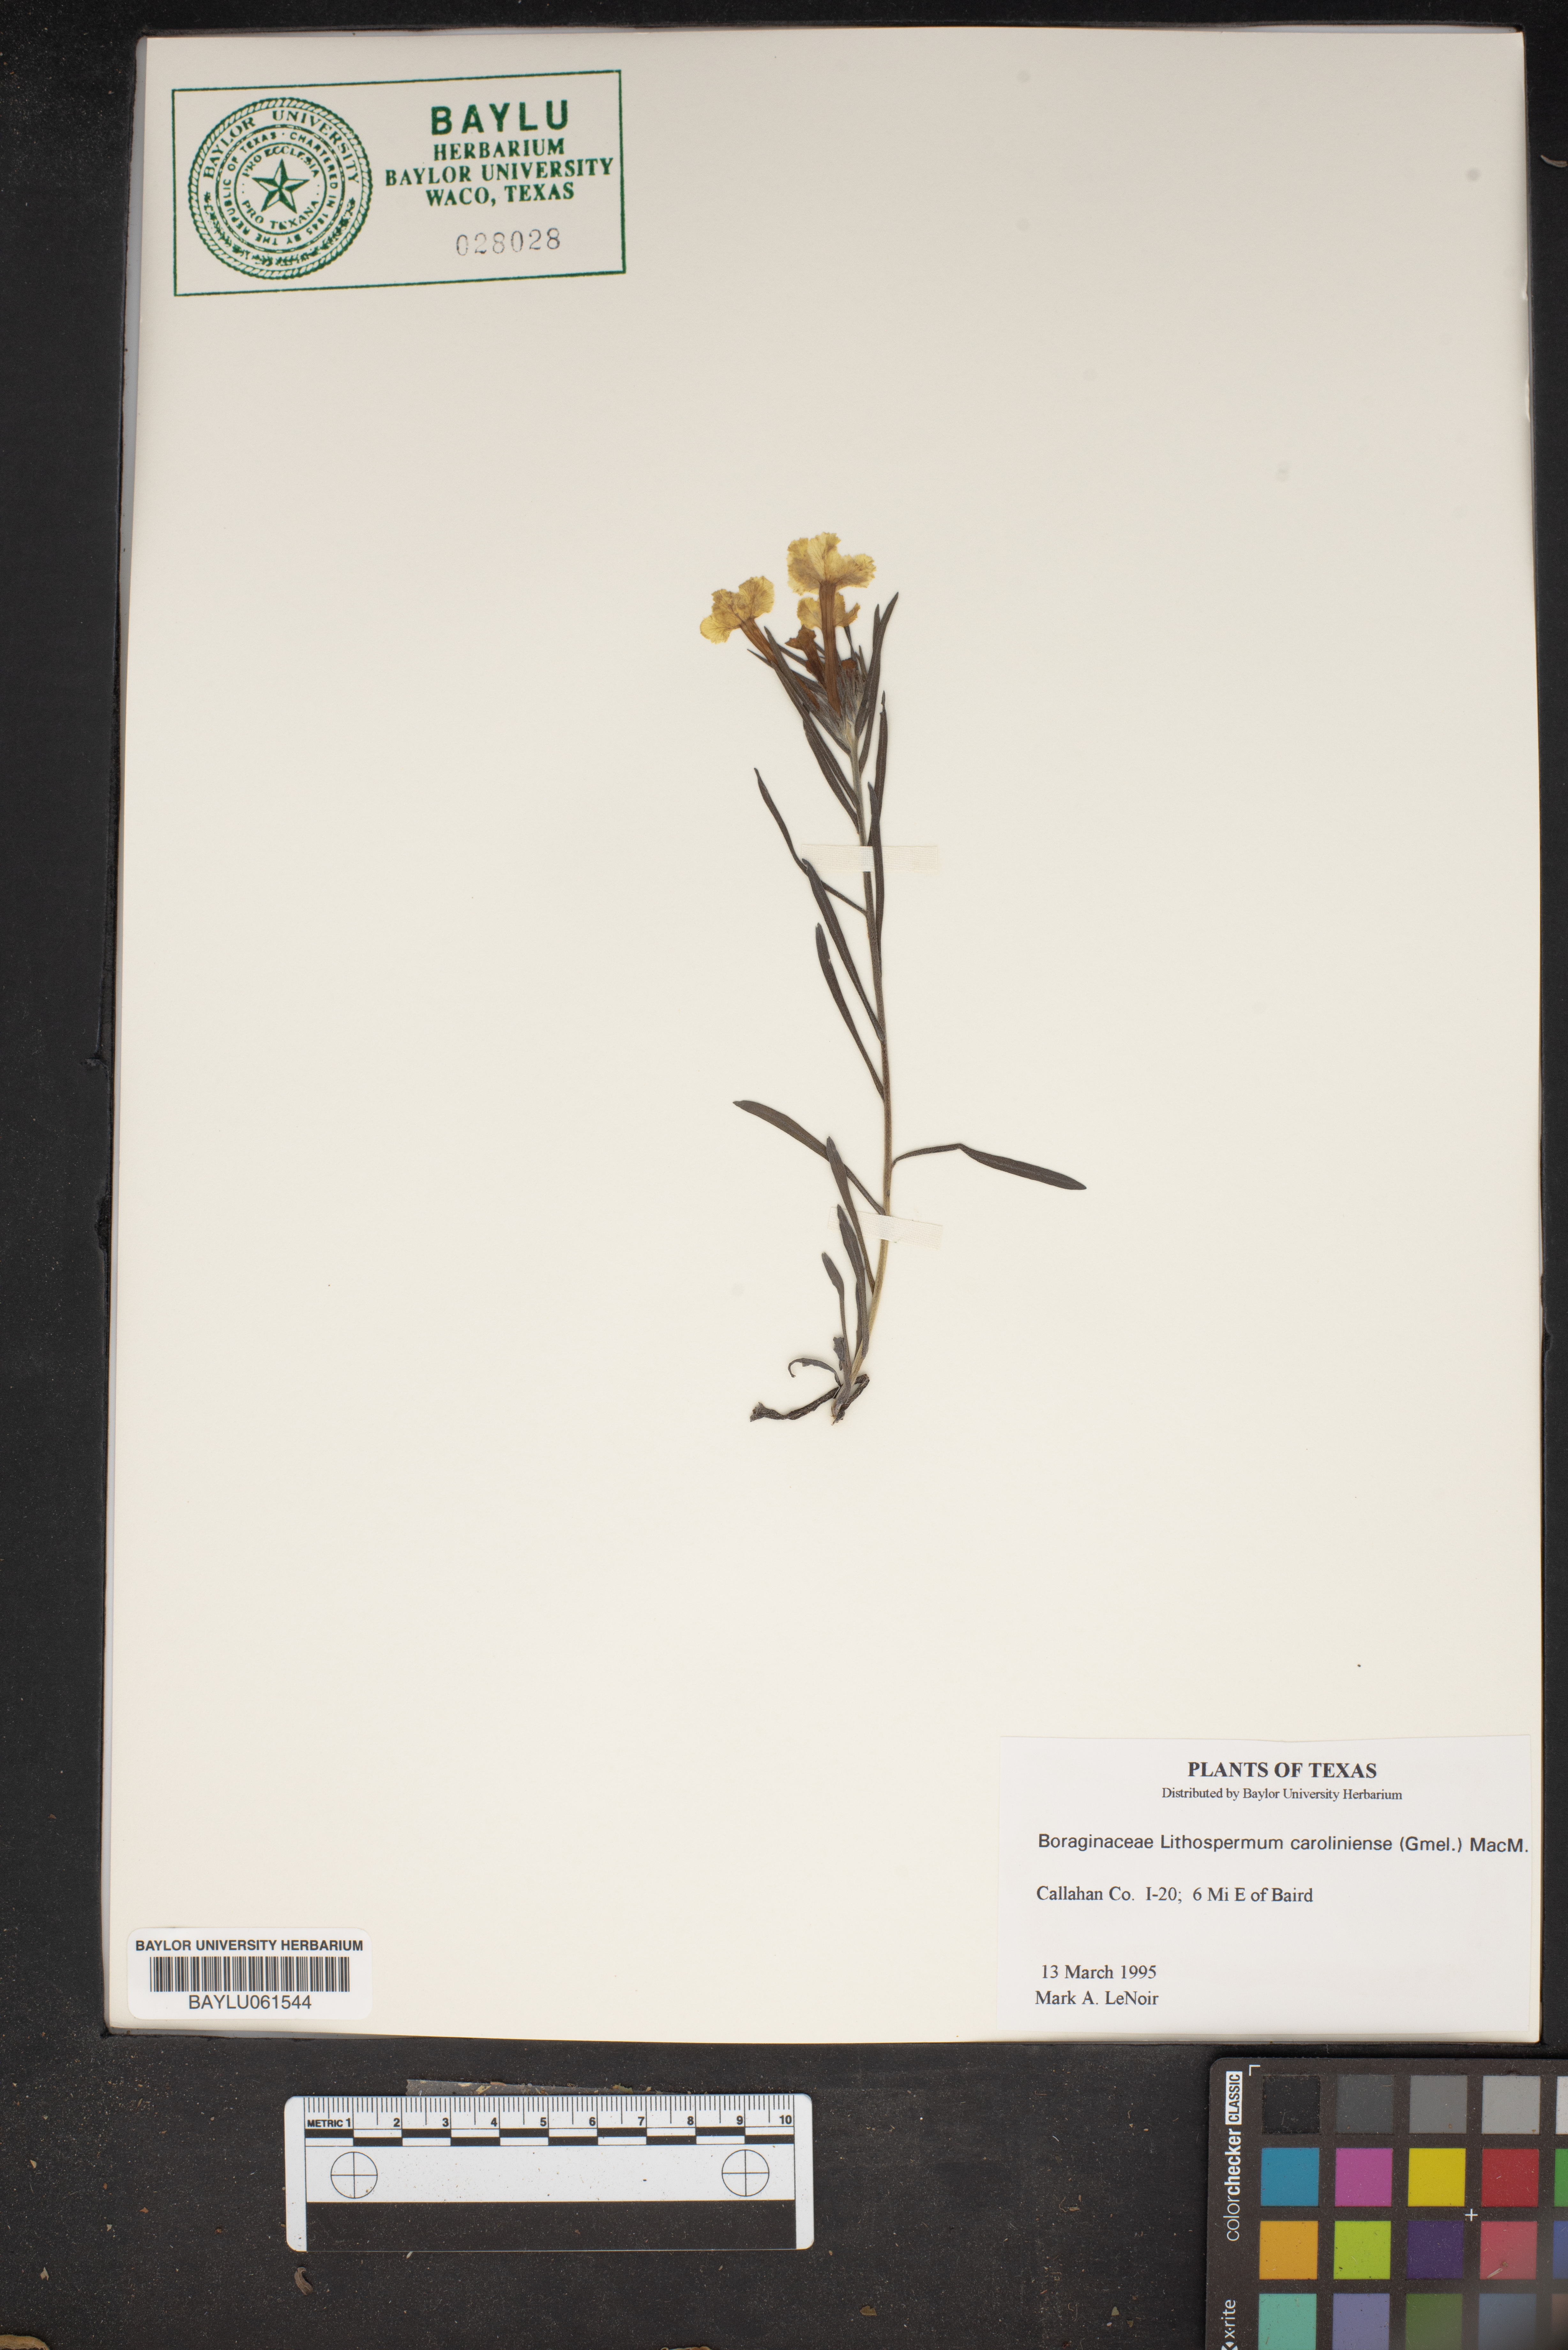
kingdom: Plantae
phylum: Tracheophyta
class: Magnoliopsida
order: Boraginales
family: Boraginaceae
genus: Lithospermum
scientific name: Lithospermum caroliniense
